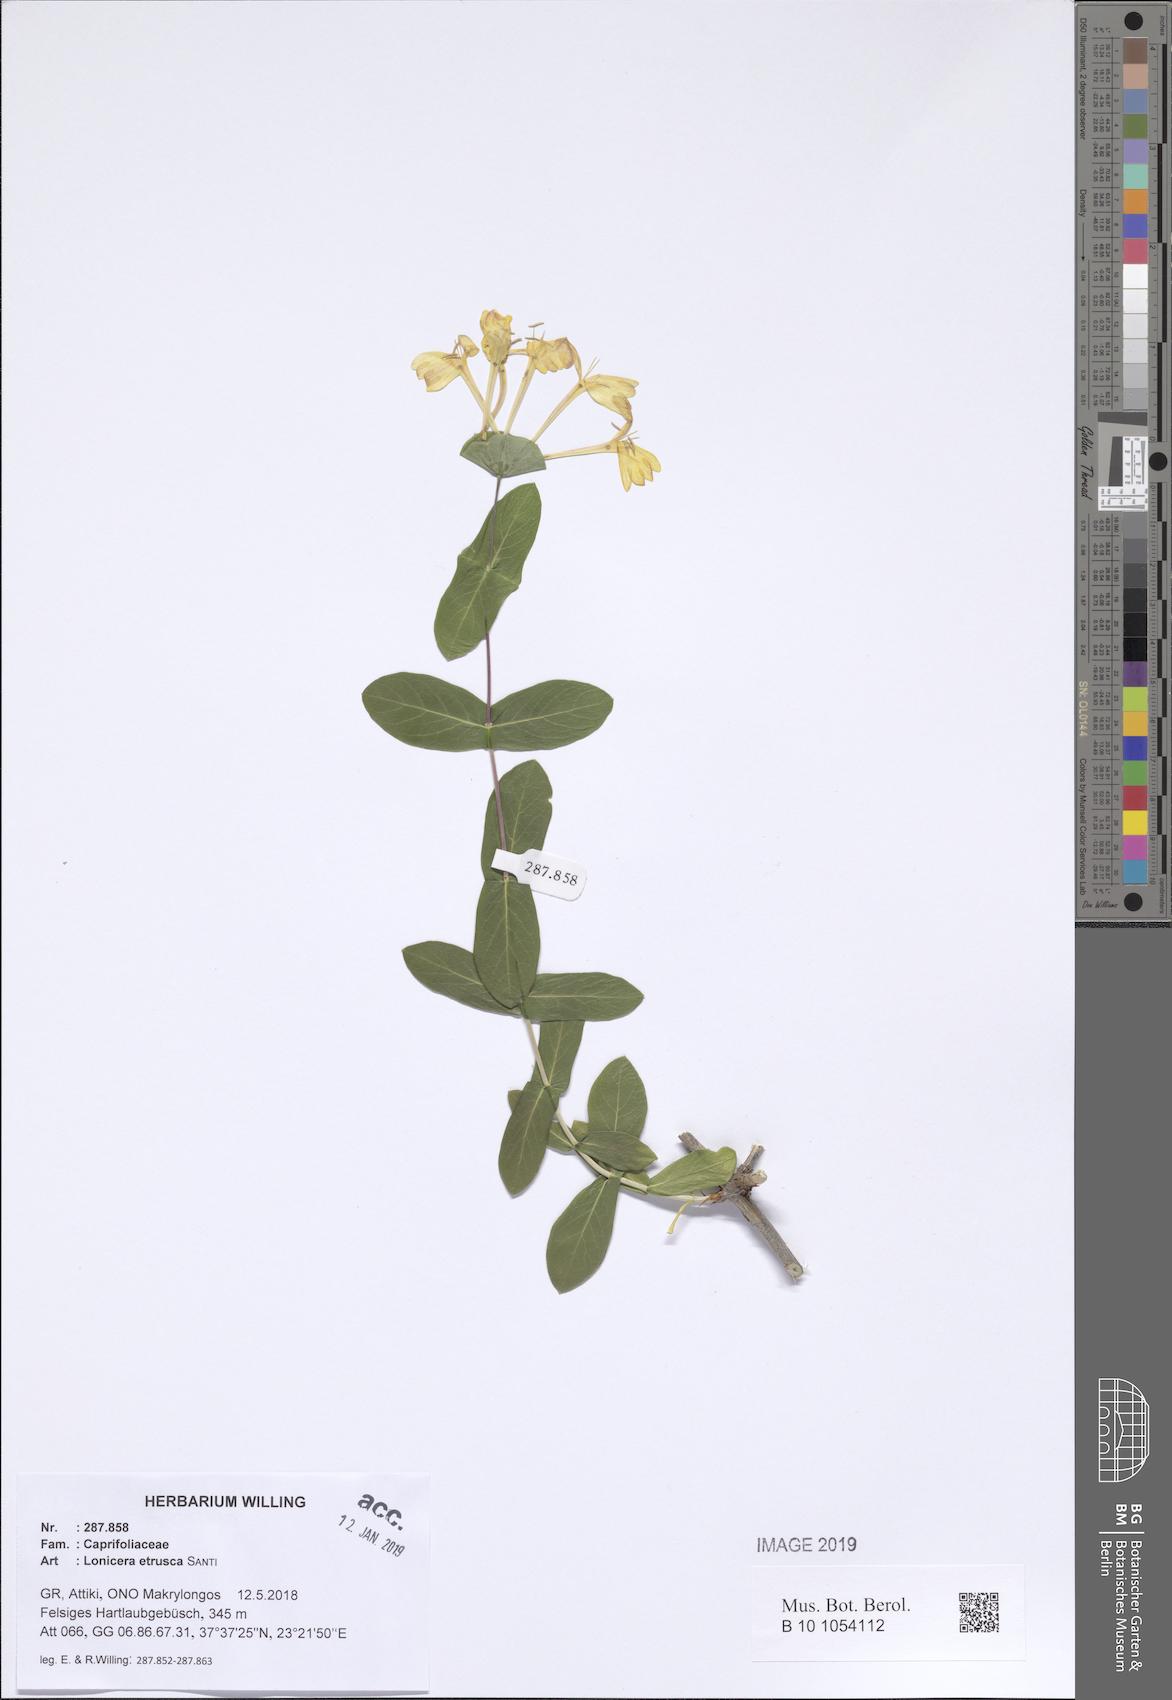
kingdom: Plantae
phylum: Tracheophyta
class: Magnoliopsida
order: Dipsacales
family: Caprifoliaceae
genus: Lonicera
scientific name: Lonicera implexa
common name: Minorca honeysuckle
